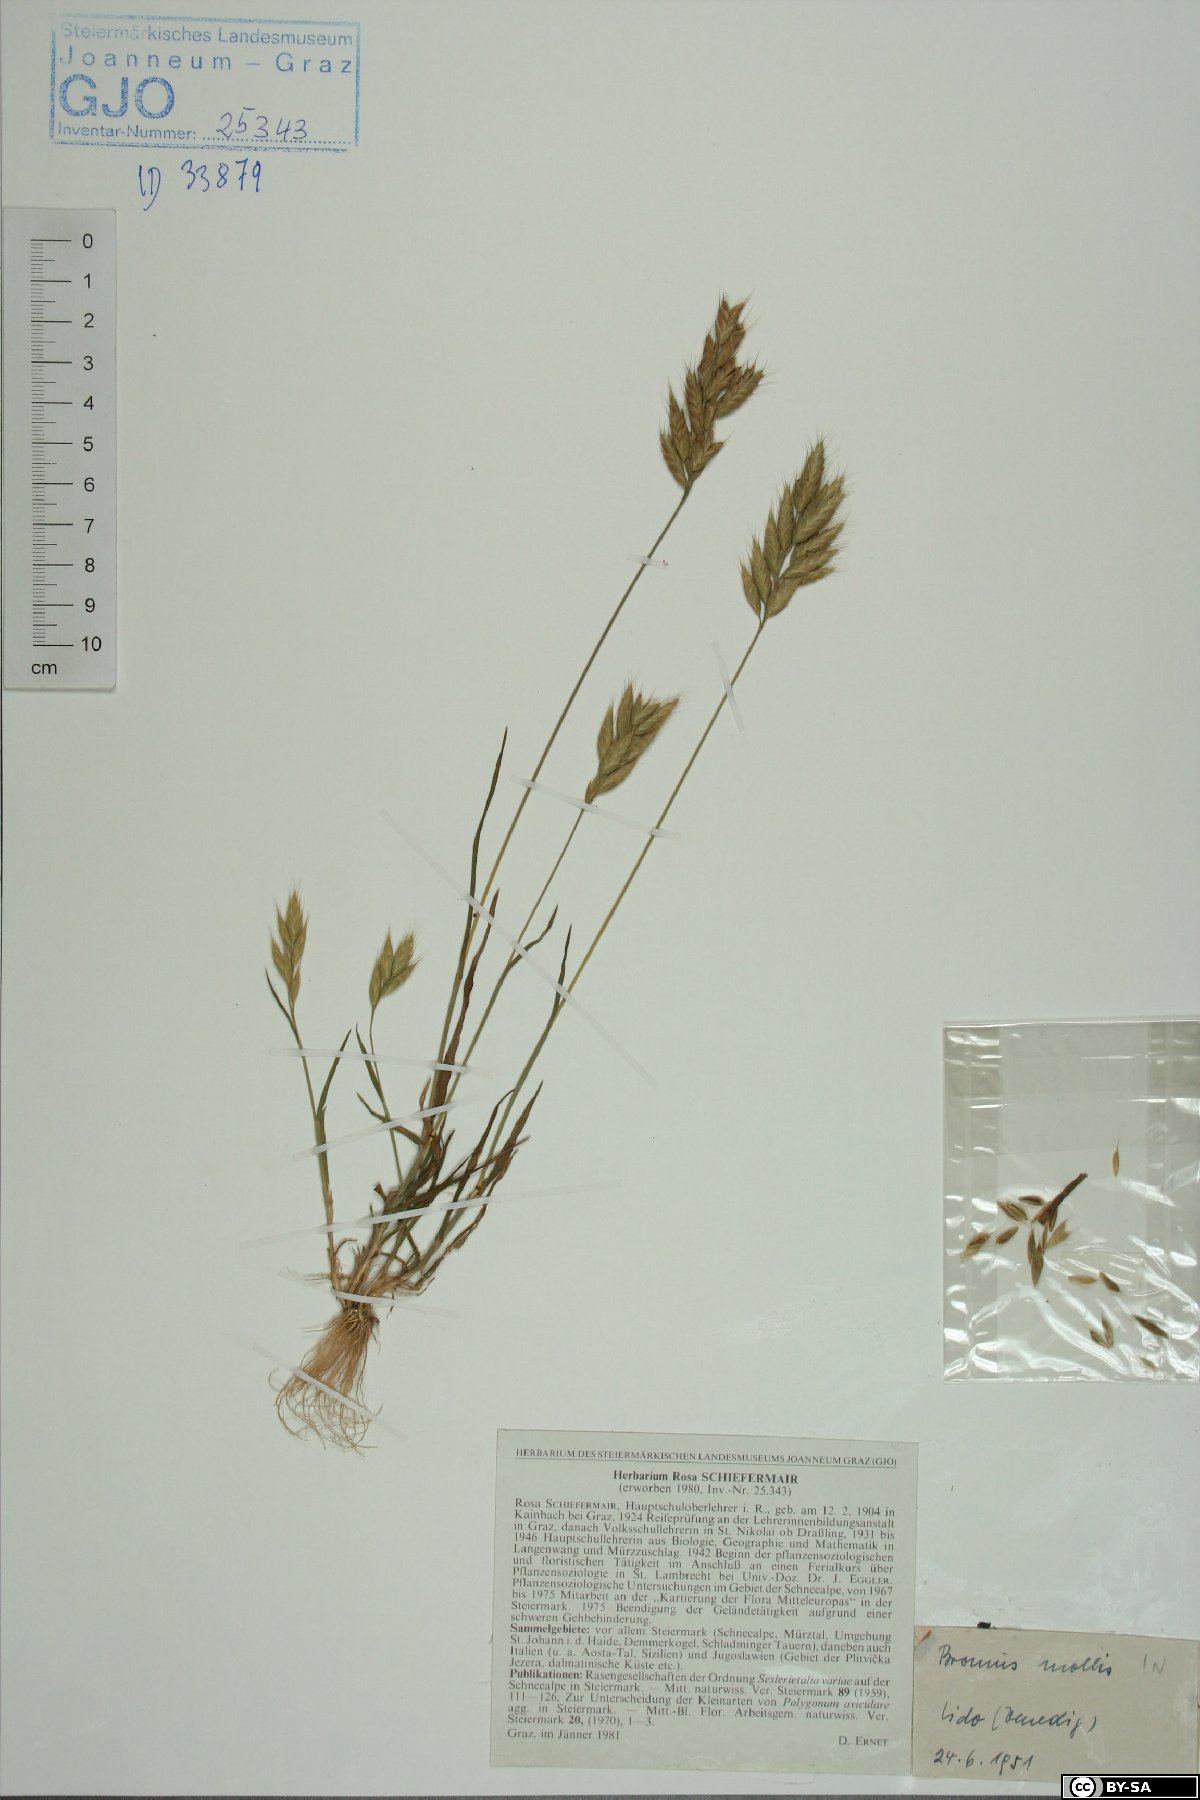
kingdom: Plantae
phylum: Tracheophyta
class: Liliopsida
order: Poales
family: Poaceae
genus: Bromus
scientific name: Bromus hordeaceus
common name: Soft brome
